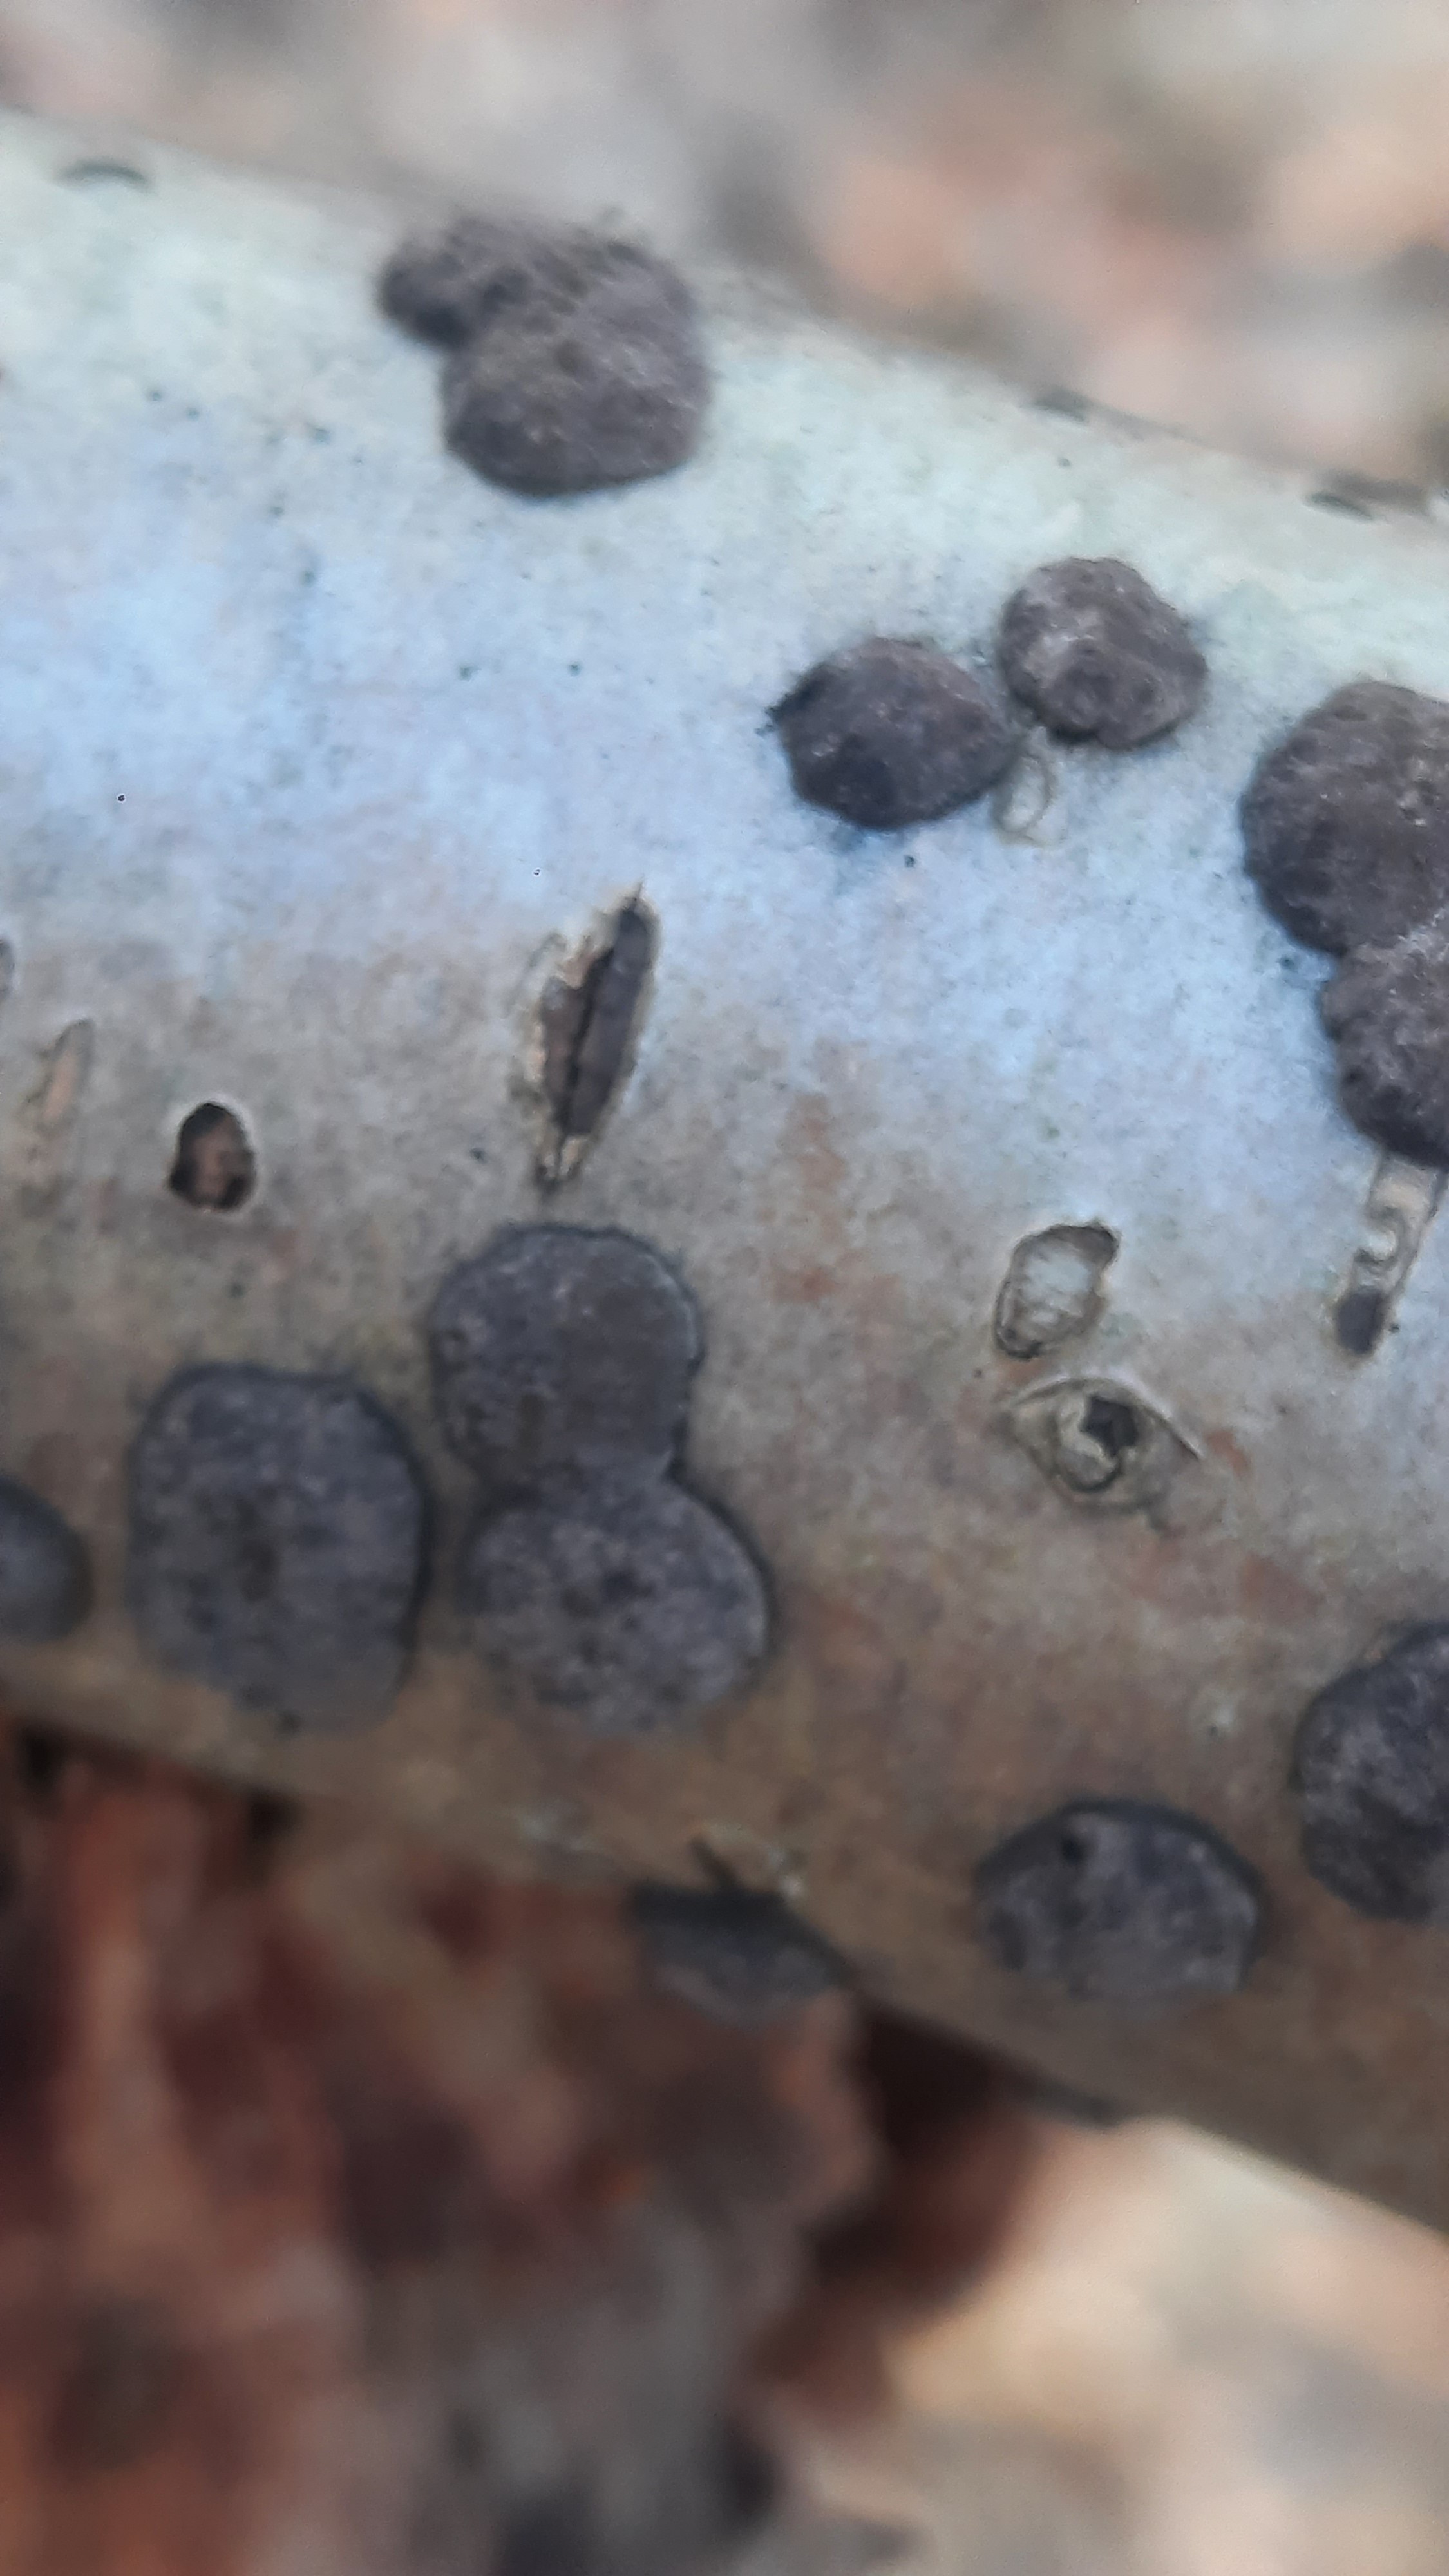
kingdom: Fungi
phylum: Ascomycota
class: Sordariomycetes
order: Xylariales
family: Hypoxylaceae
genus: Hypoxylon
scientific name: Hypoxylon fuscum
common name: kegleformet kulbær
